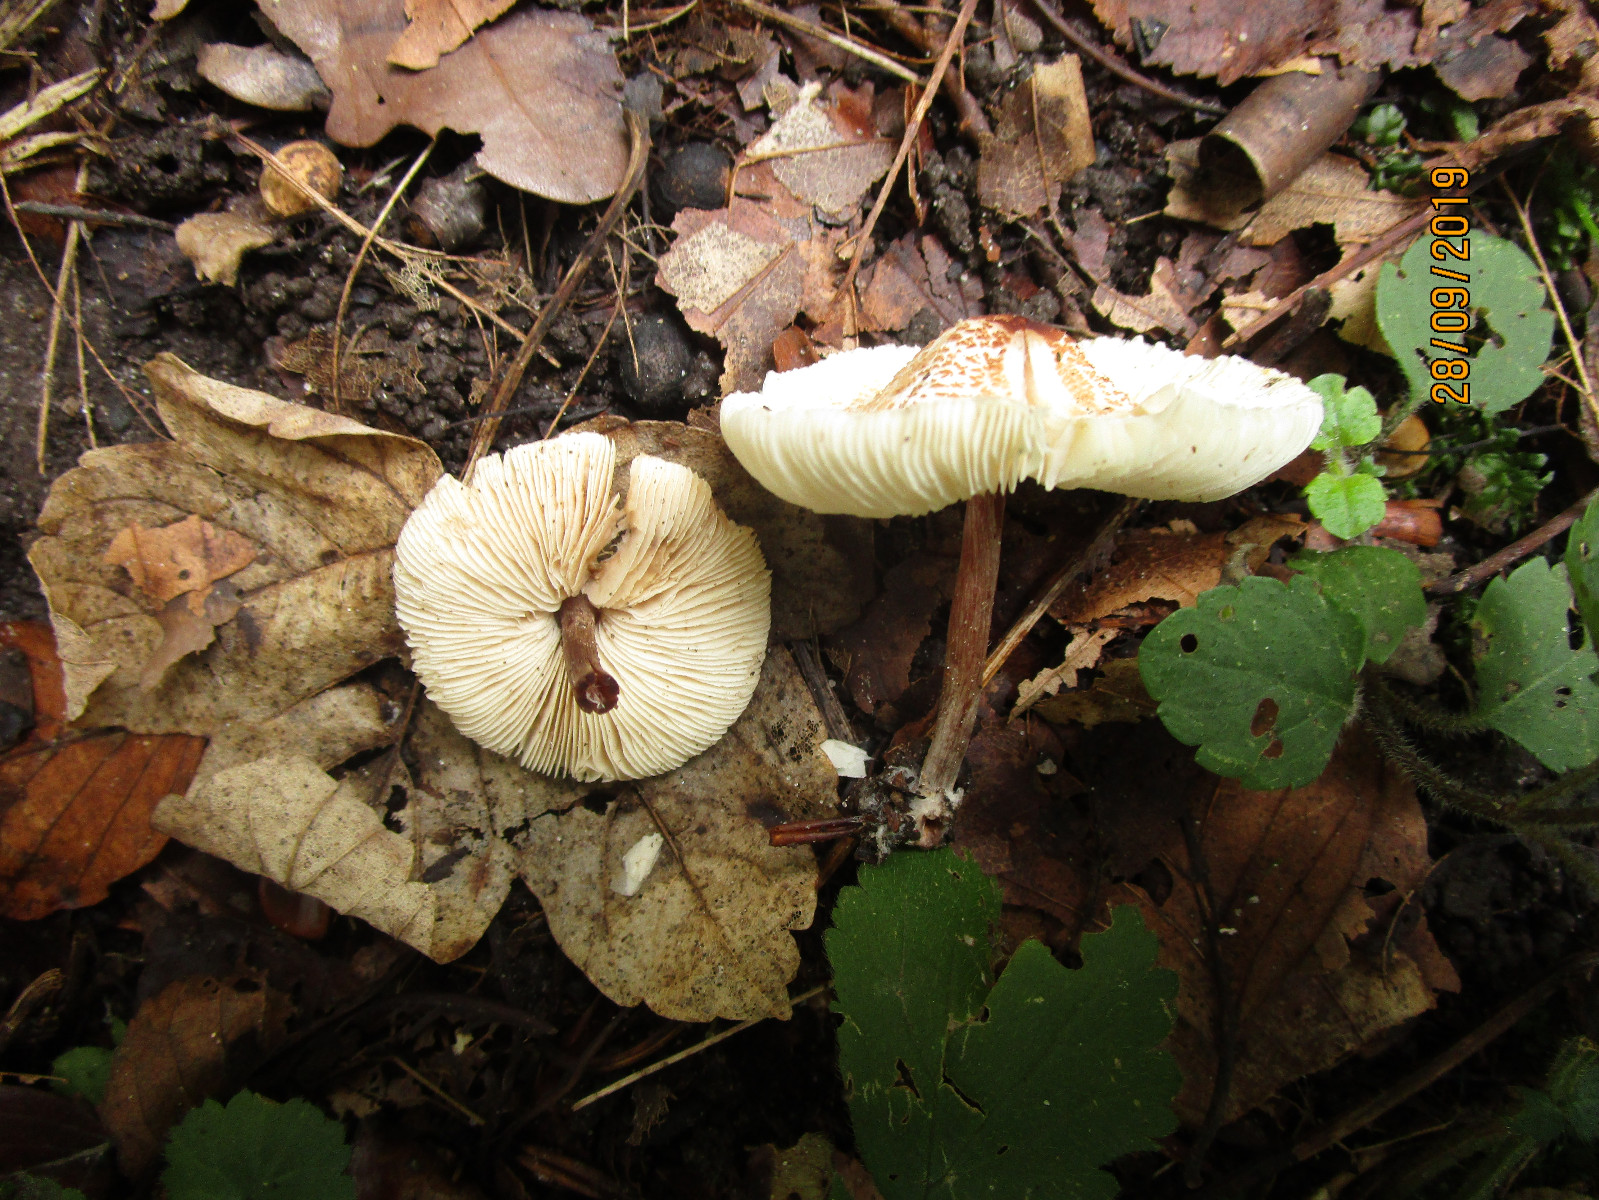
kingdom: Fungi
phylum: Basidiomycota
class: Agaricomycetes
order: Agaricales
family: Agaricaceae
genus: Lepiota
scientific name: Lepiota cristata
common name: stinkende parasolhat
